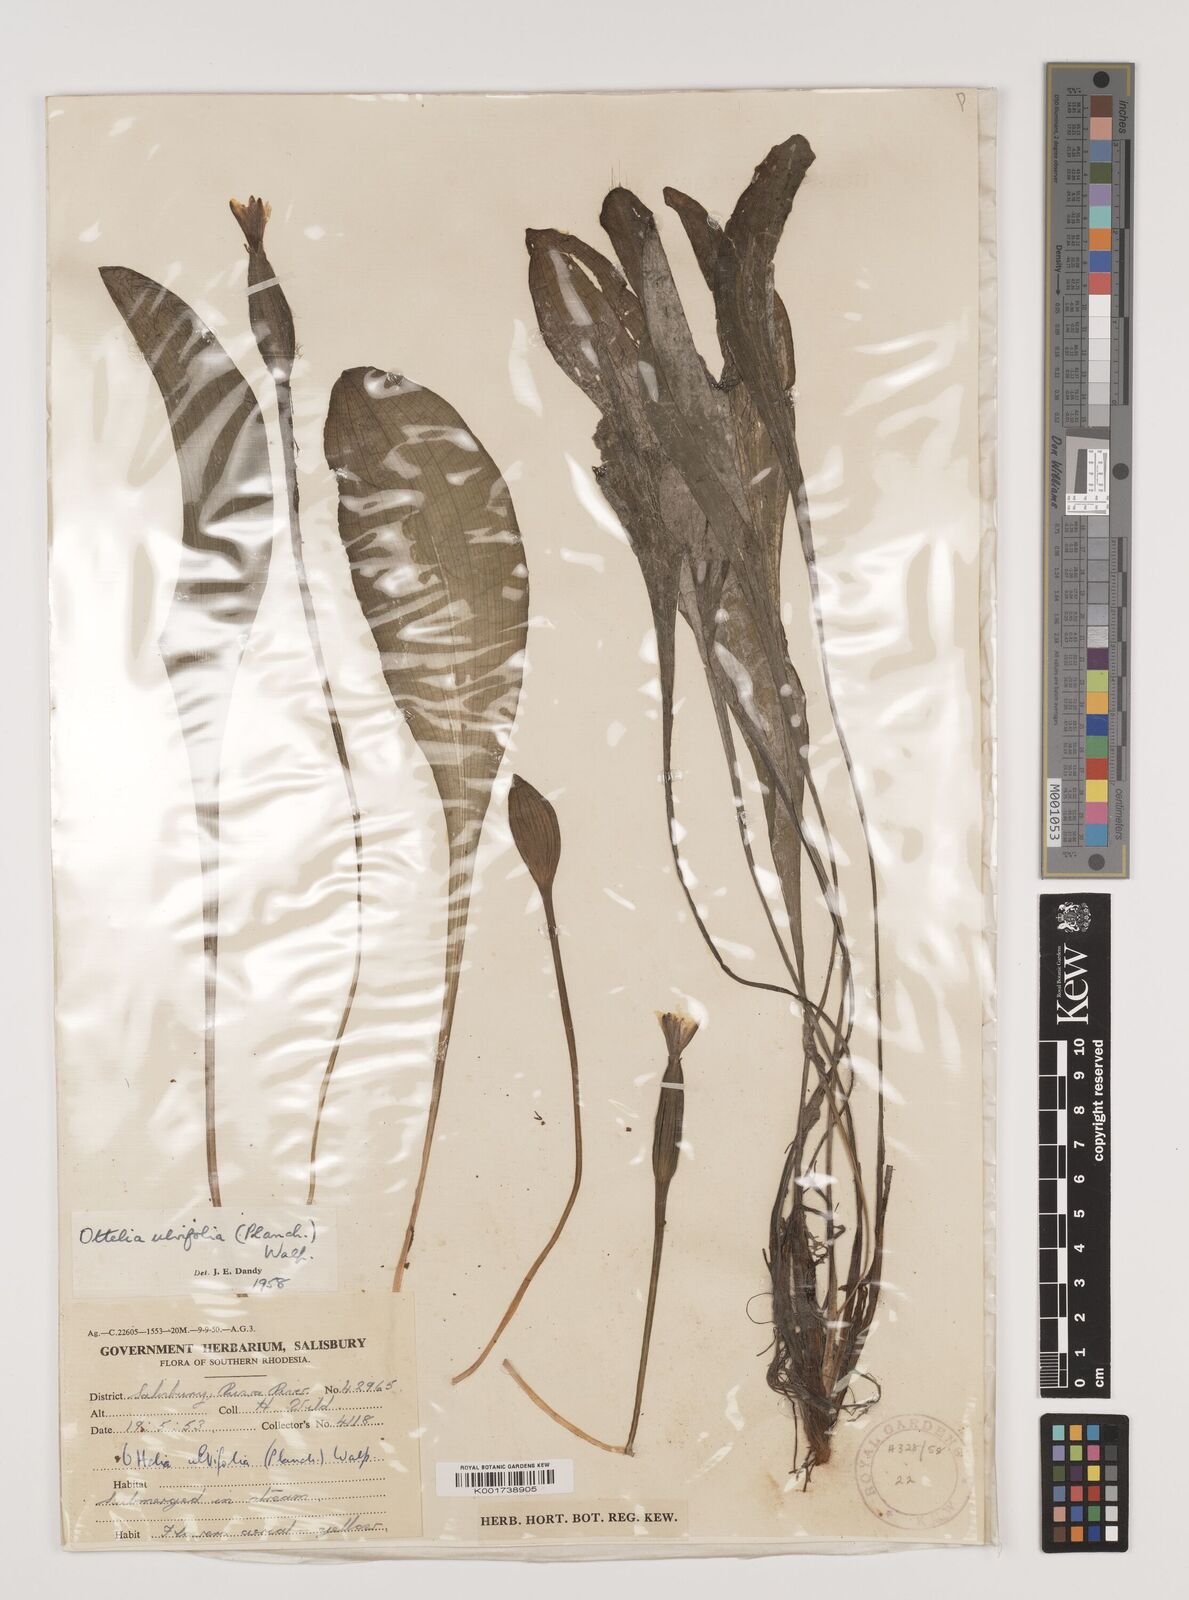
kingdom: Plantae
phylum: Tracheophyta
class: Liliopsida
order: Alismatales
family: Hydrocharitaceae
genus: Ottelia
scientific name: Ottelia ulvifolia
